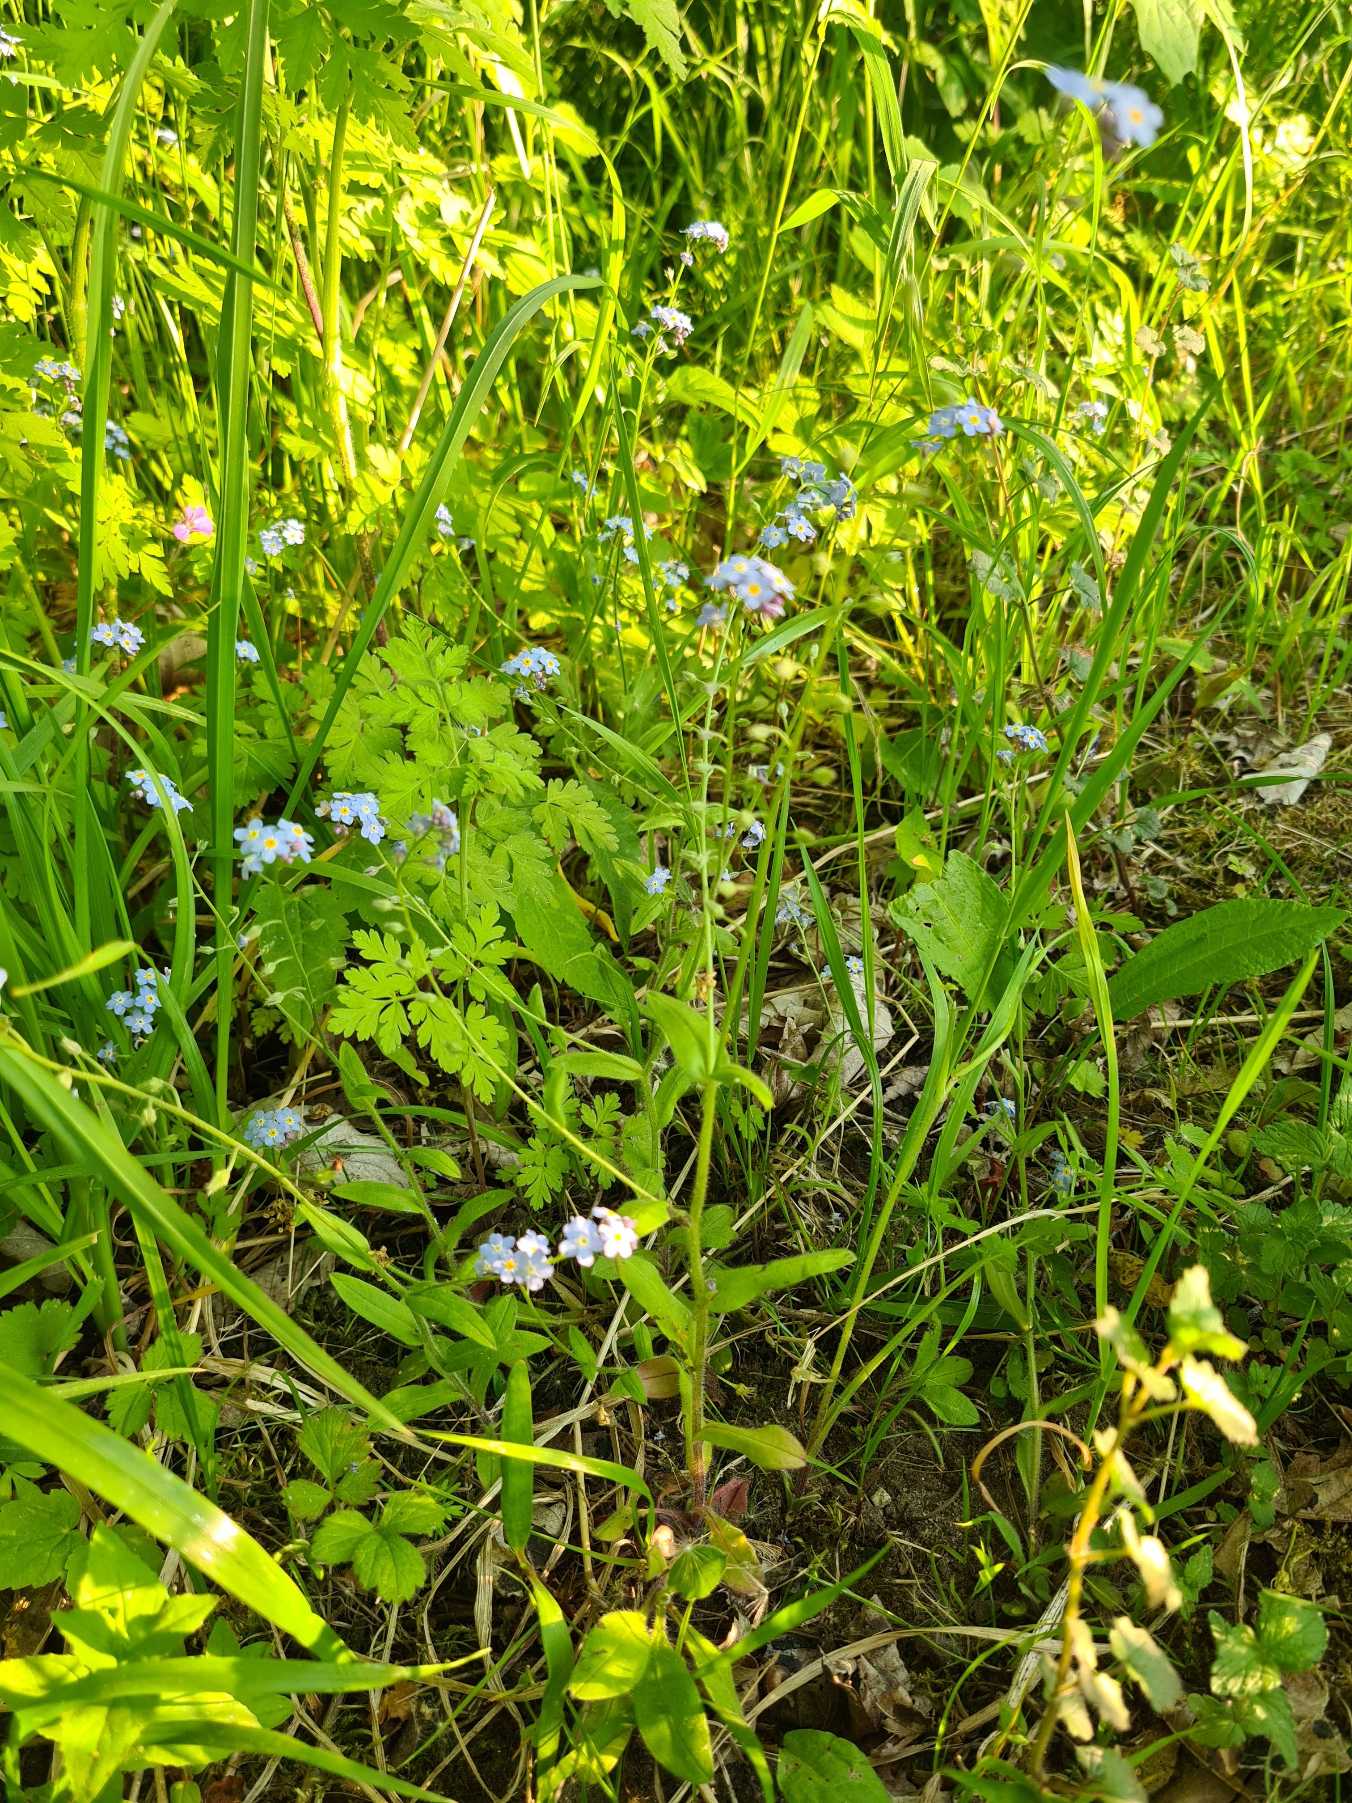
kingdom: Plantae
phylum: Tracheophyta
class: Magnoliopsida
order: Boraginales
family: Boraginaceae
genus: Myosotis
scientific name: Myosotis sylvatica
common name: Skov-forglemmigej
